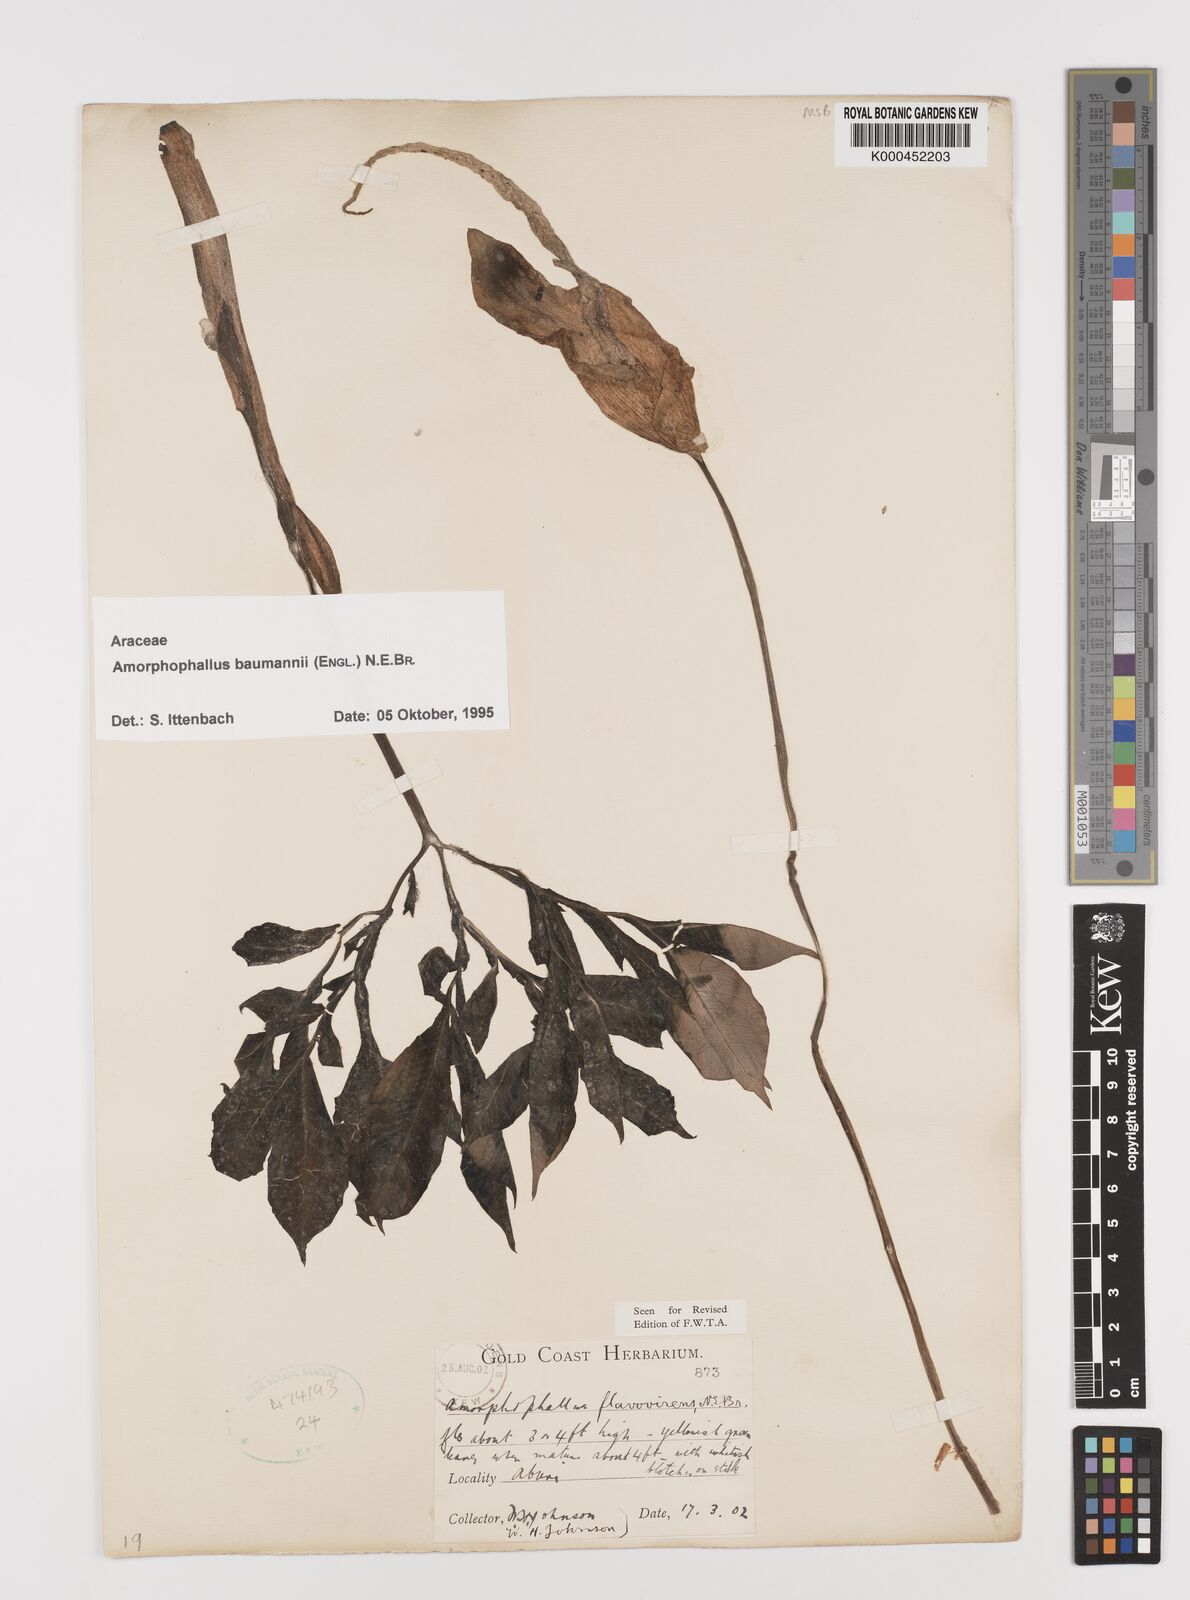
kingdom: Plantae
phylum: Tracheophyta
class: Liliopsida
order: Alismatales
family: Araceae
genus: Amorphophallus
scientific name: Amorphophallus baumannii
